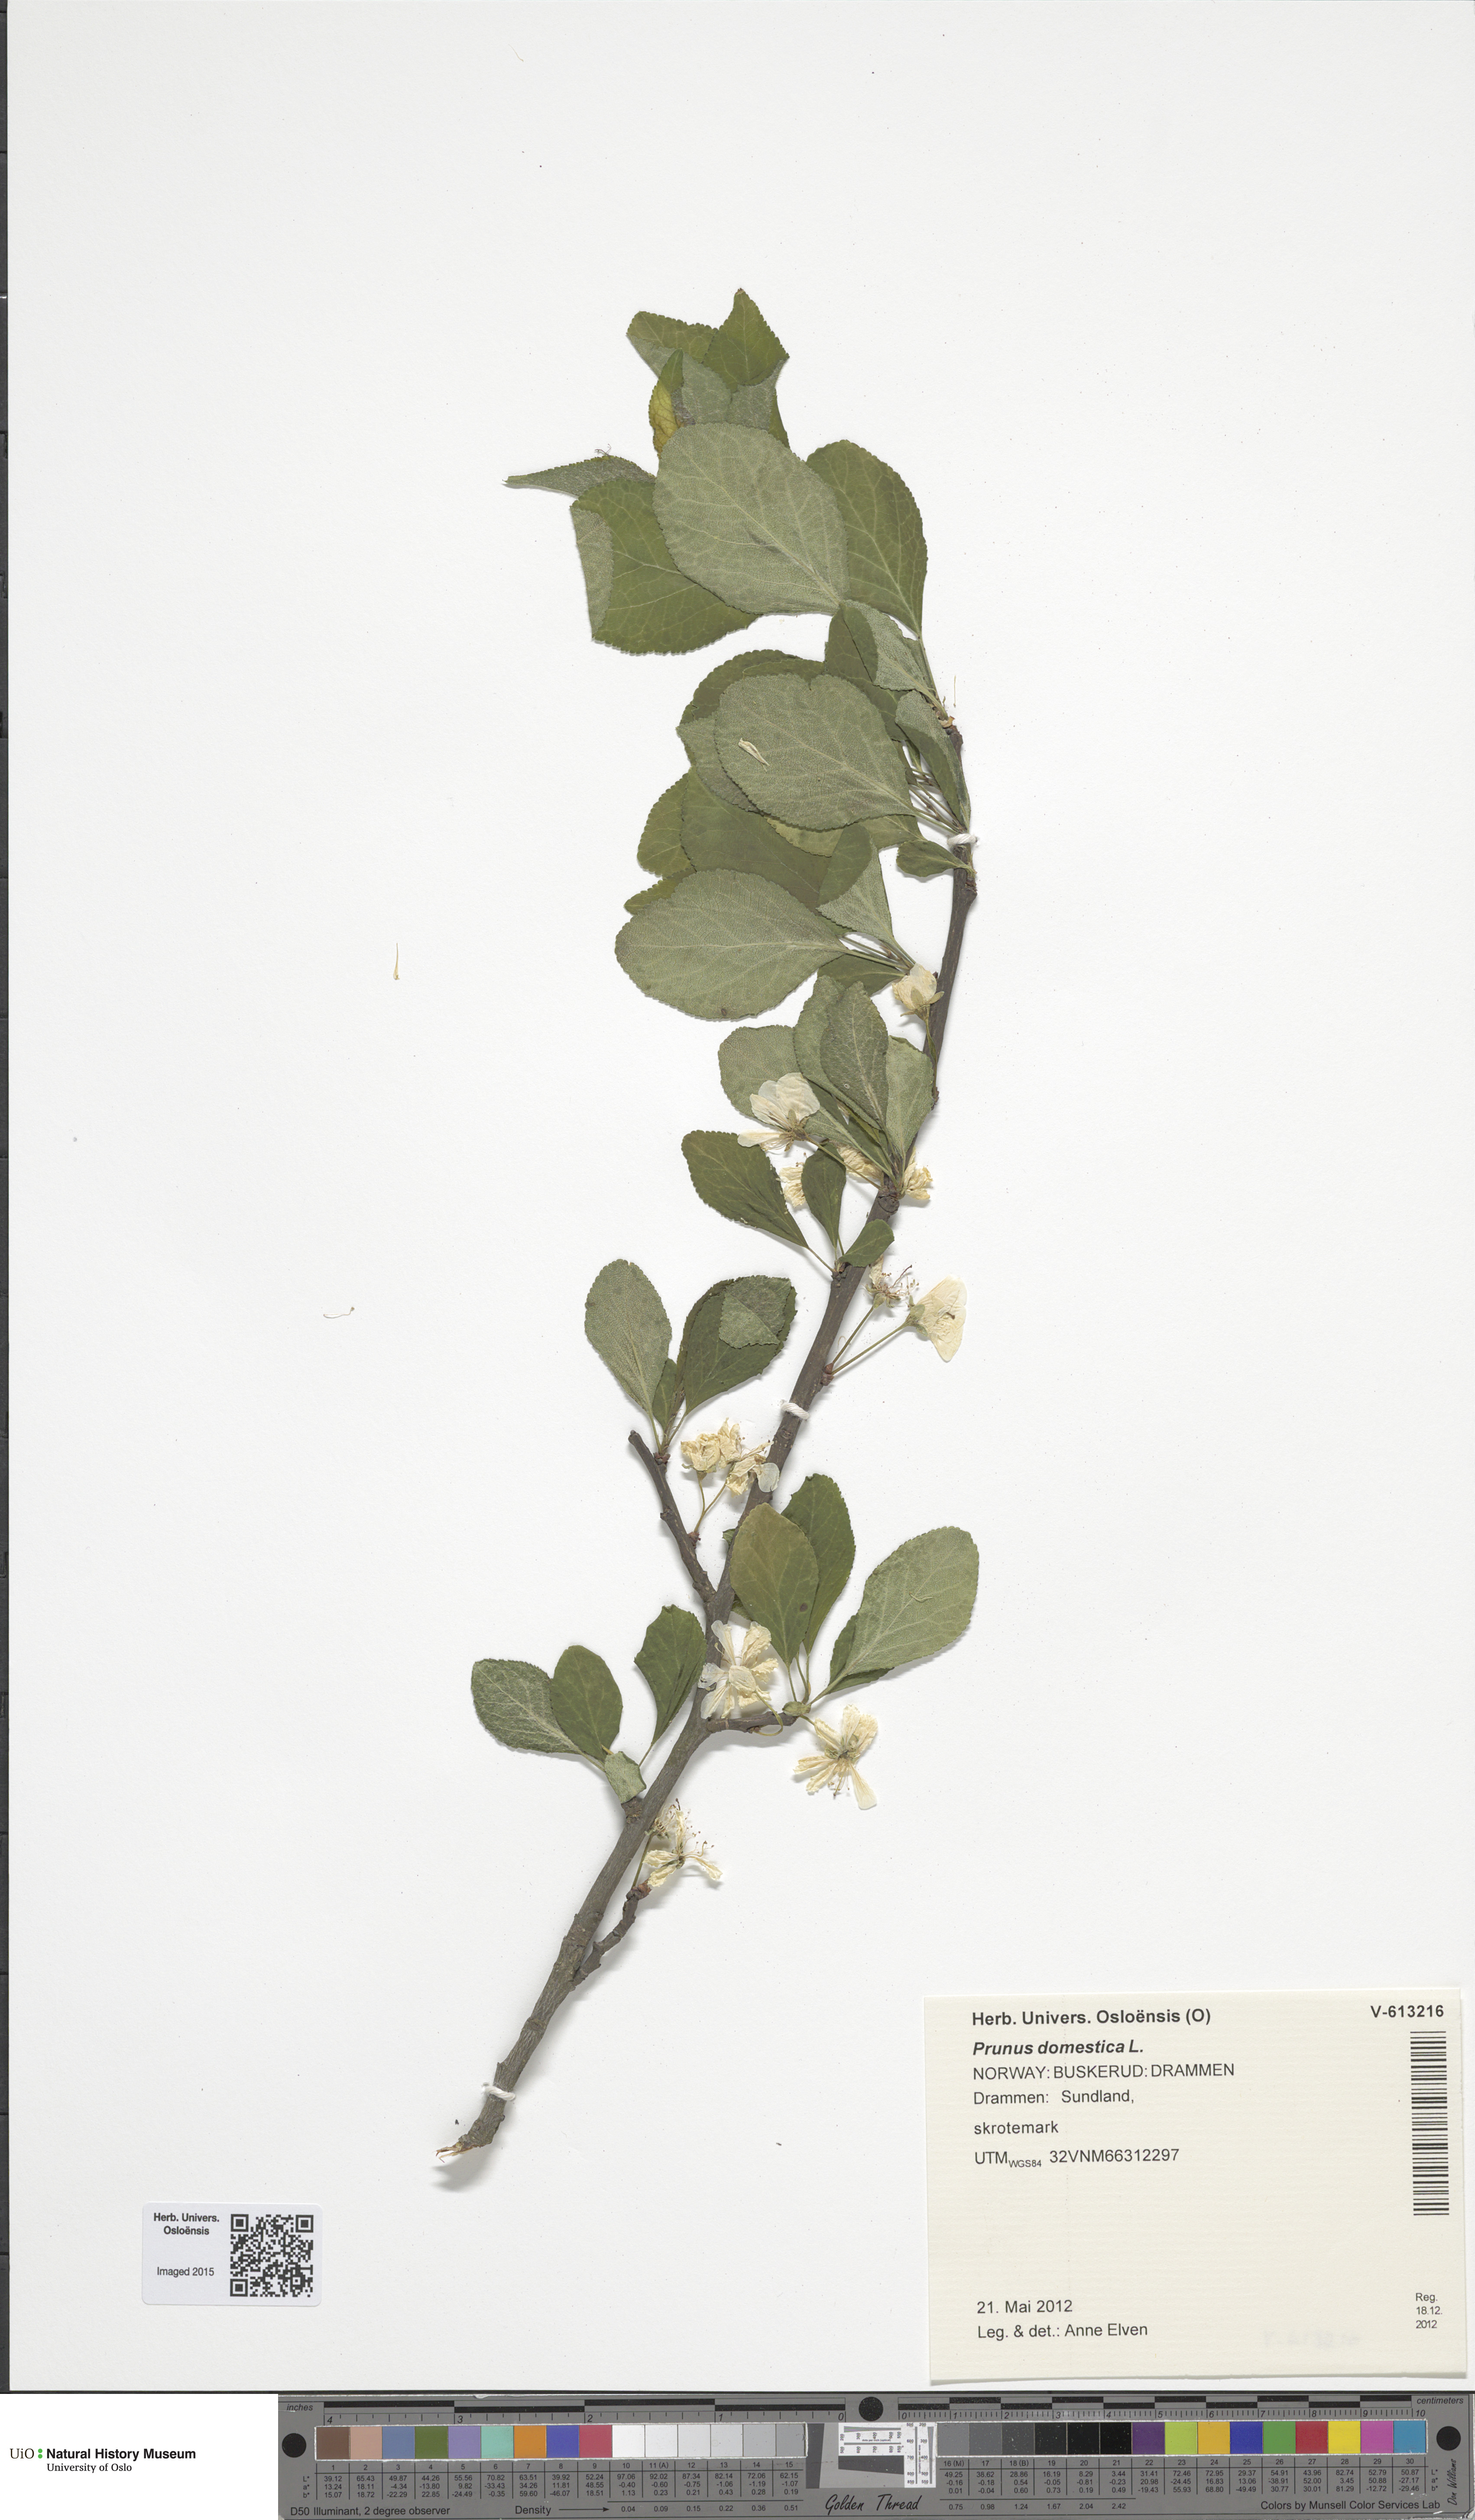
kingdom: Plantae
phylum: Tracheophyta
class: Magnoliopsida
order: Rosales
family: Rosaceae
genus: Prunus
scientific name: Prunus domestica
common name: Wild plum
